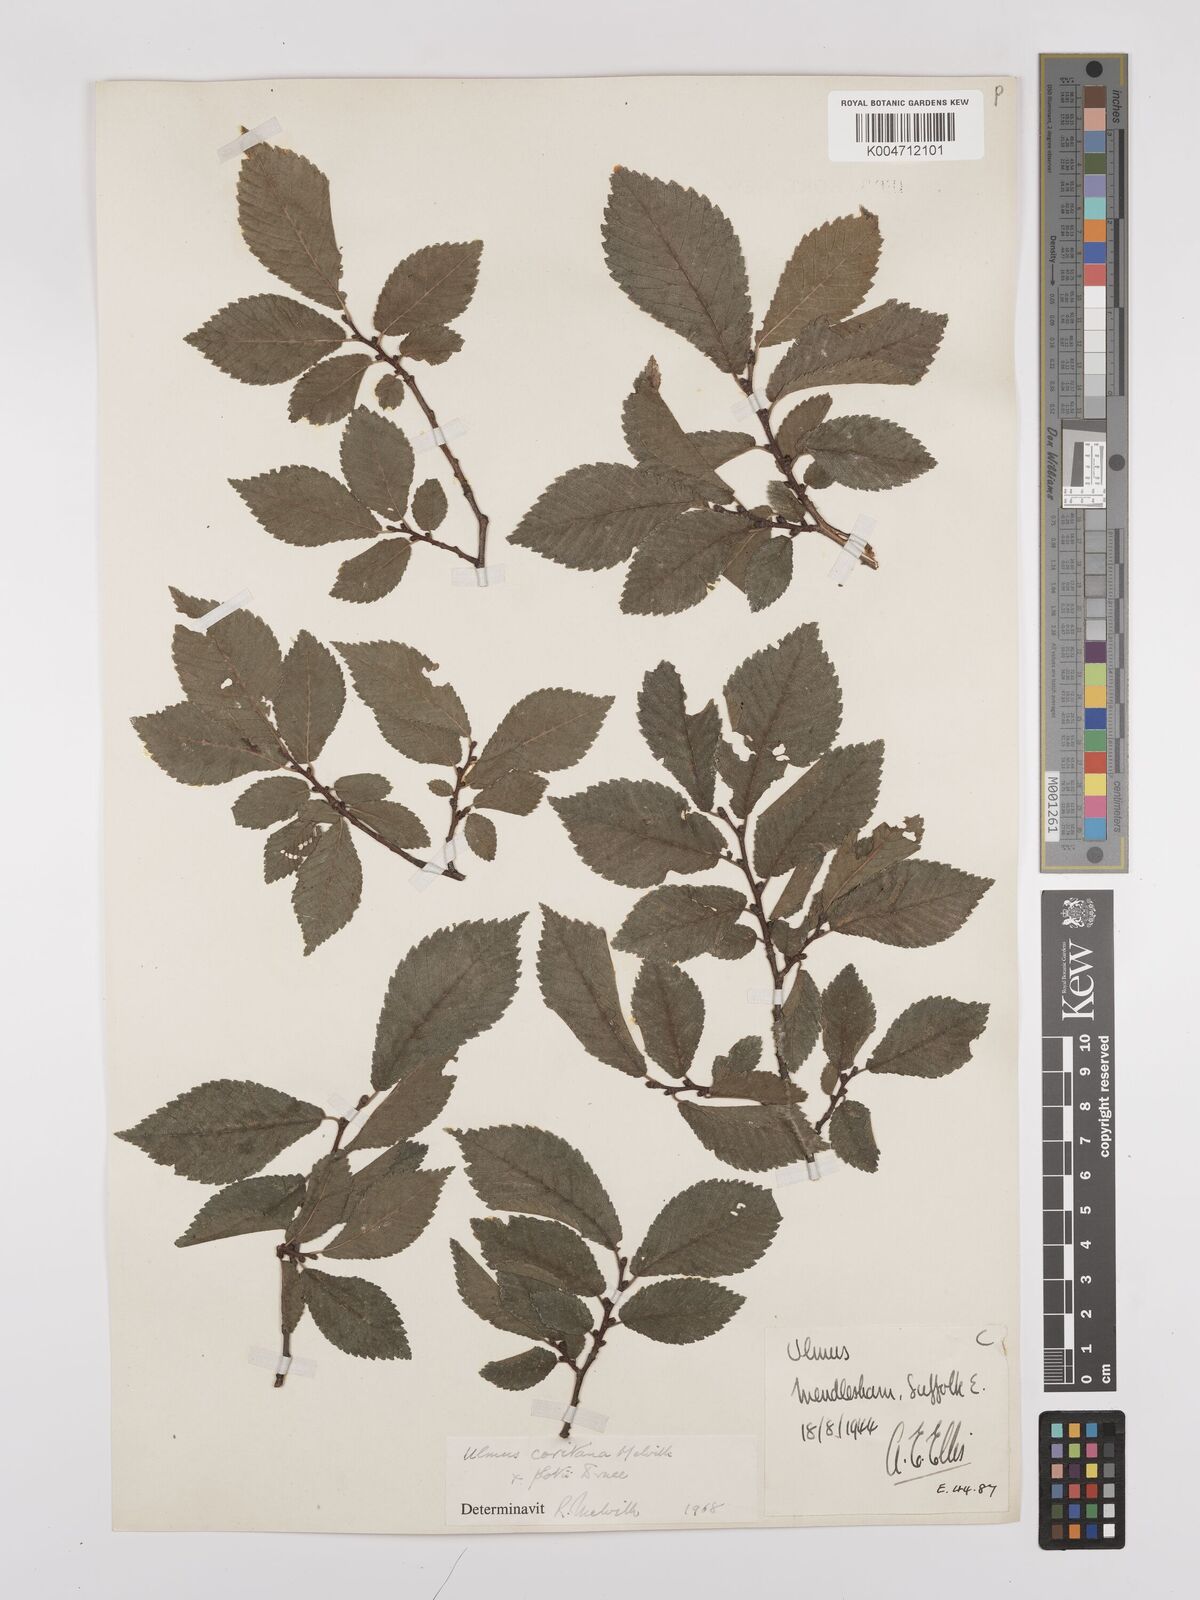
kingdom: Plantae
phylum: Tracheophyta
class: Magnoliopsida
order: Rosales
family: Ulmaceae
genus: Ulmus
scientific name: Ulmus minor
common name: Small-leaved elm
